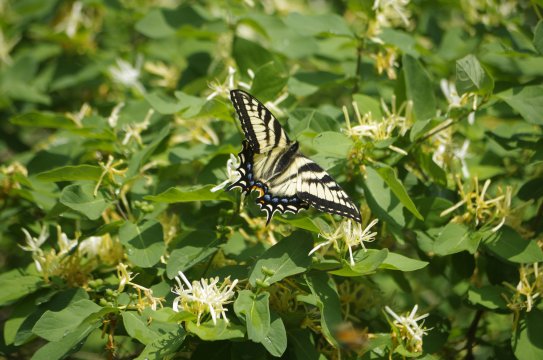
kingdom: Animalia
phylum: Arthropoda
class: Insecta
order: Lepidoptera
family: Papilionidae
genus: Pterourus
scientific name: Pterourus canadensis
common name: Canadian Tiger Swallowtail
